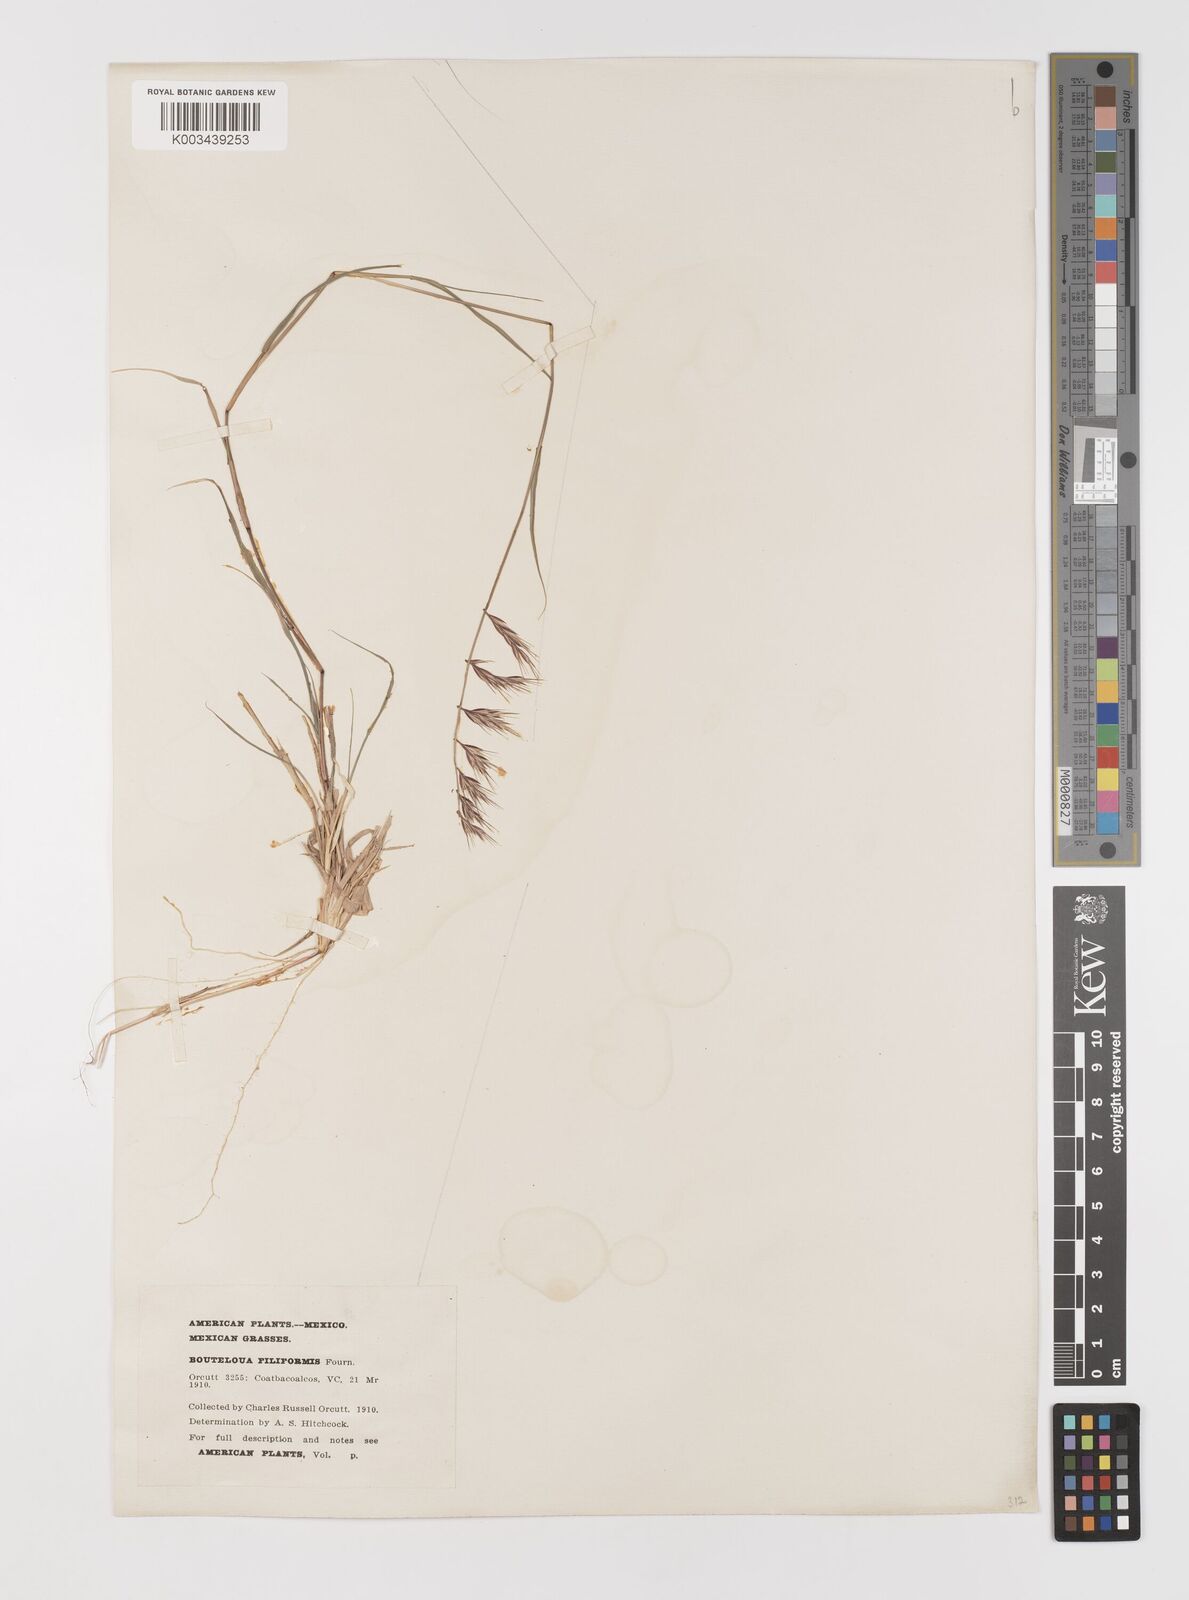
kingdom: Plantae
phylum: Tracheophyta
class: Liliopsida
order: Poales
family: Poaceae
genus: Bouteloua
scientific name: Bouteloua repens
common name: Slender grama
